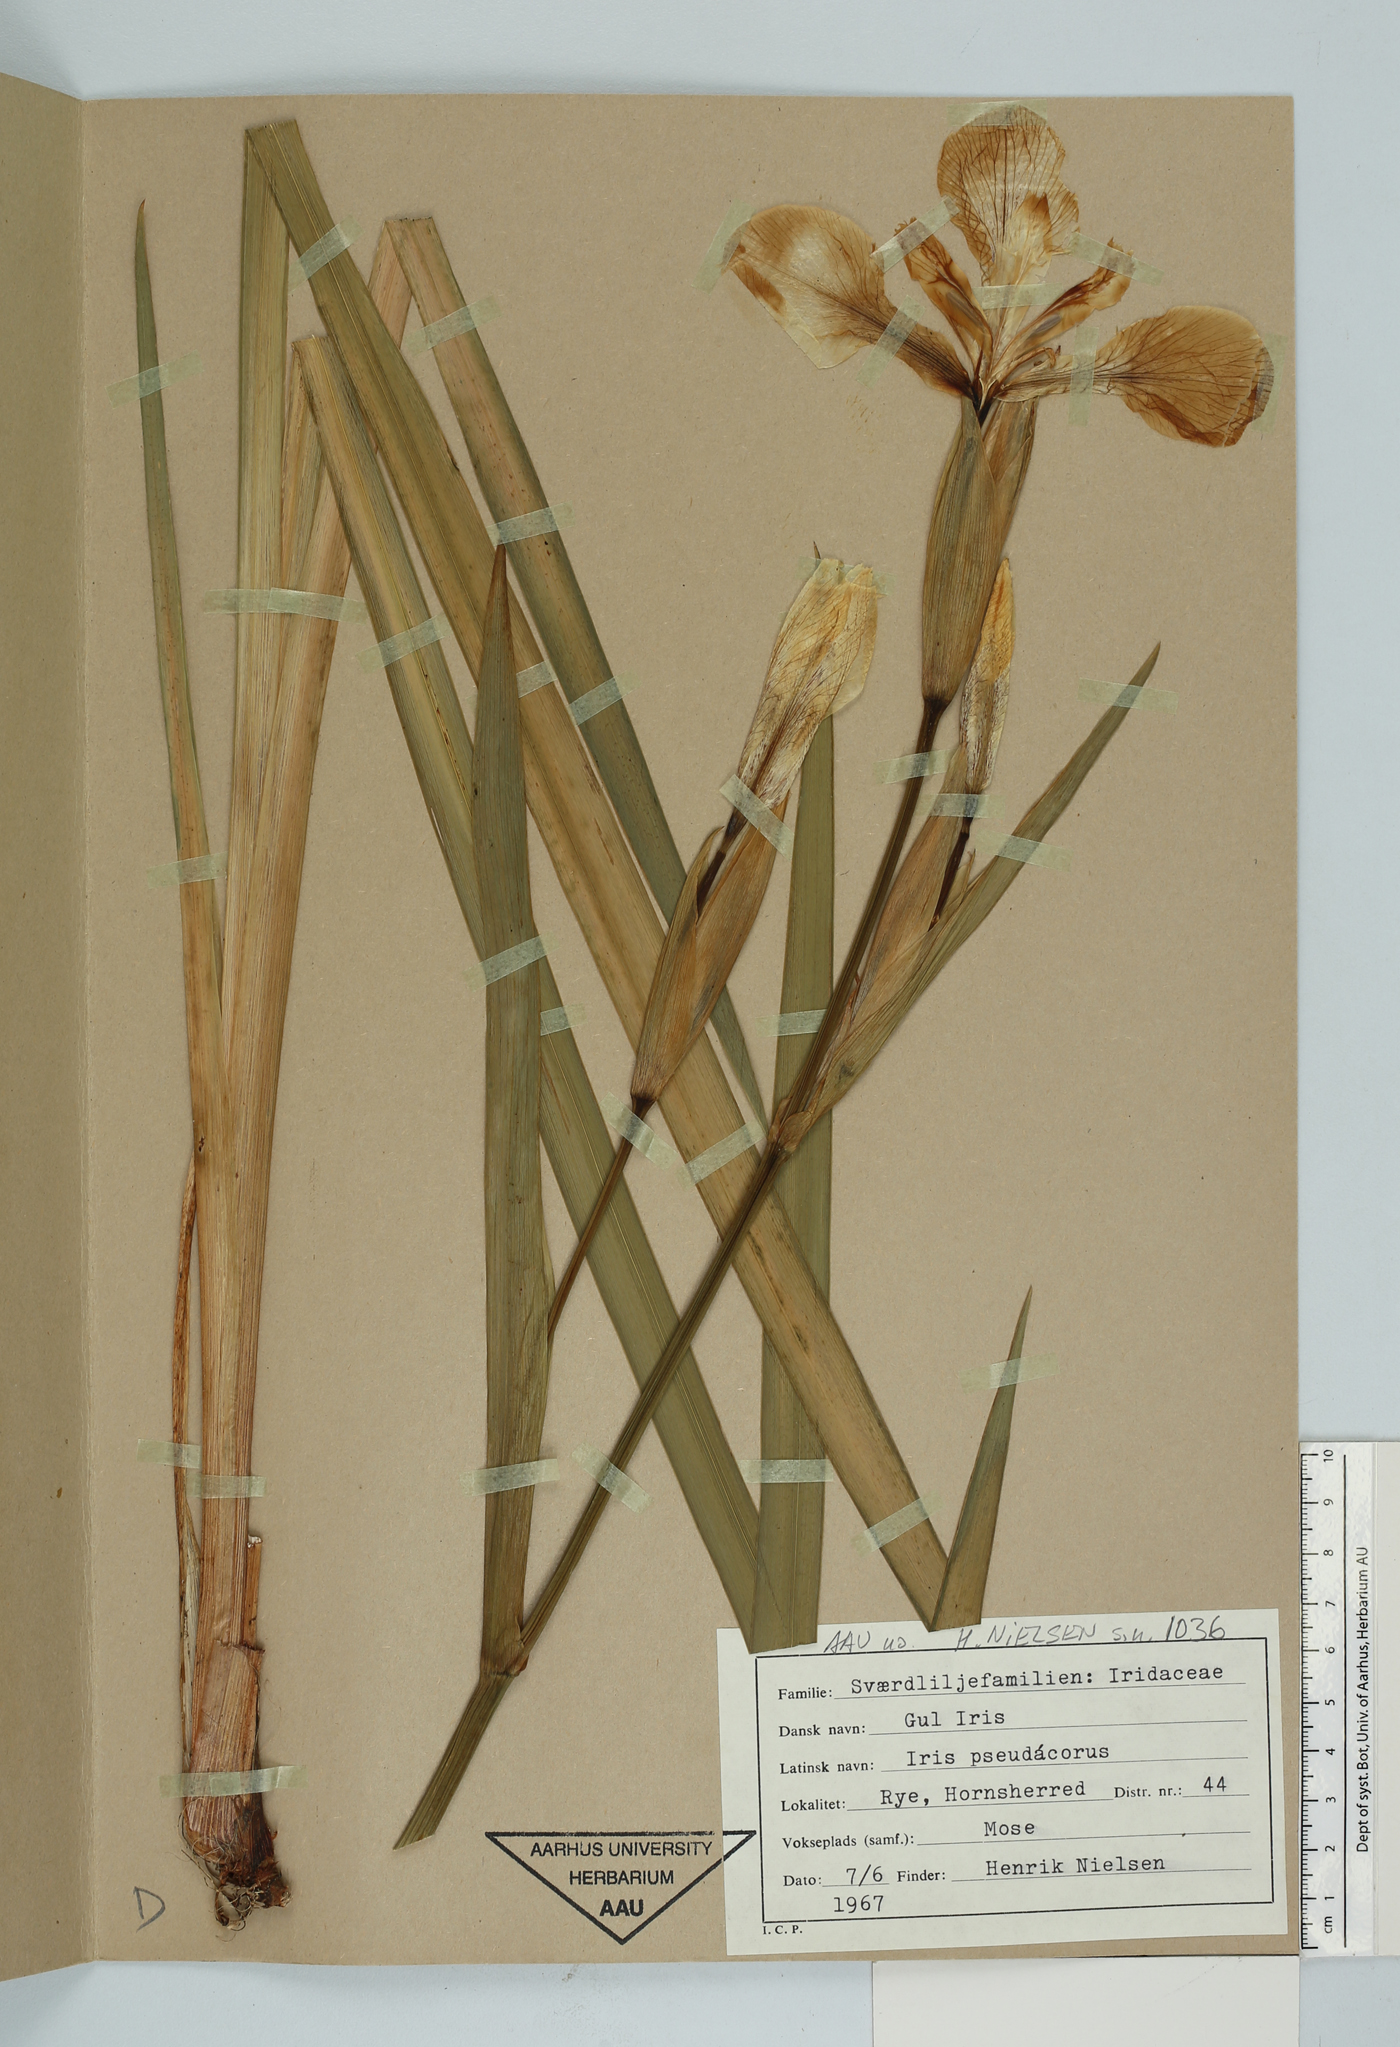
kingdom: Plantae
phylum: Tracheophyta
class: Liliopsida
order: Asparagales
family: Iridaceae
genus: Iris
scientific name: Iris pseudacorus
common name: Yellow flag
